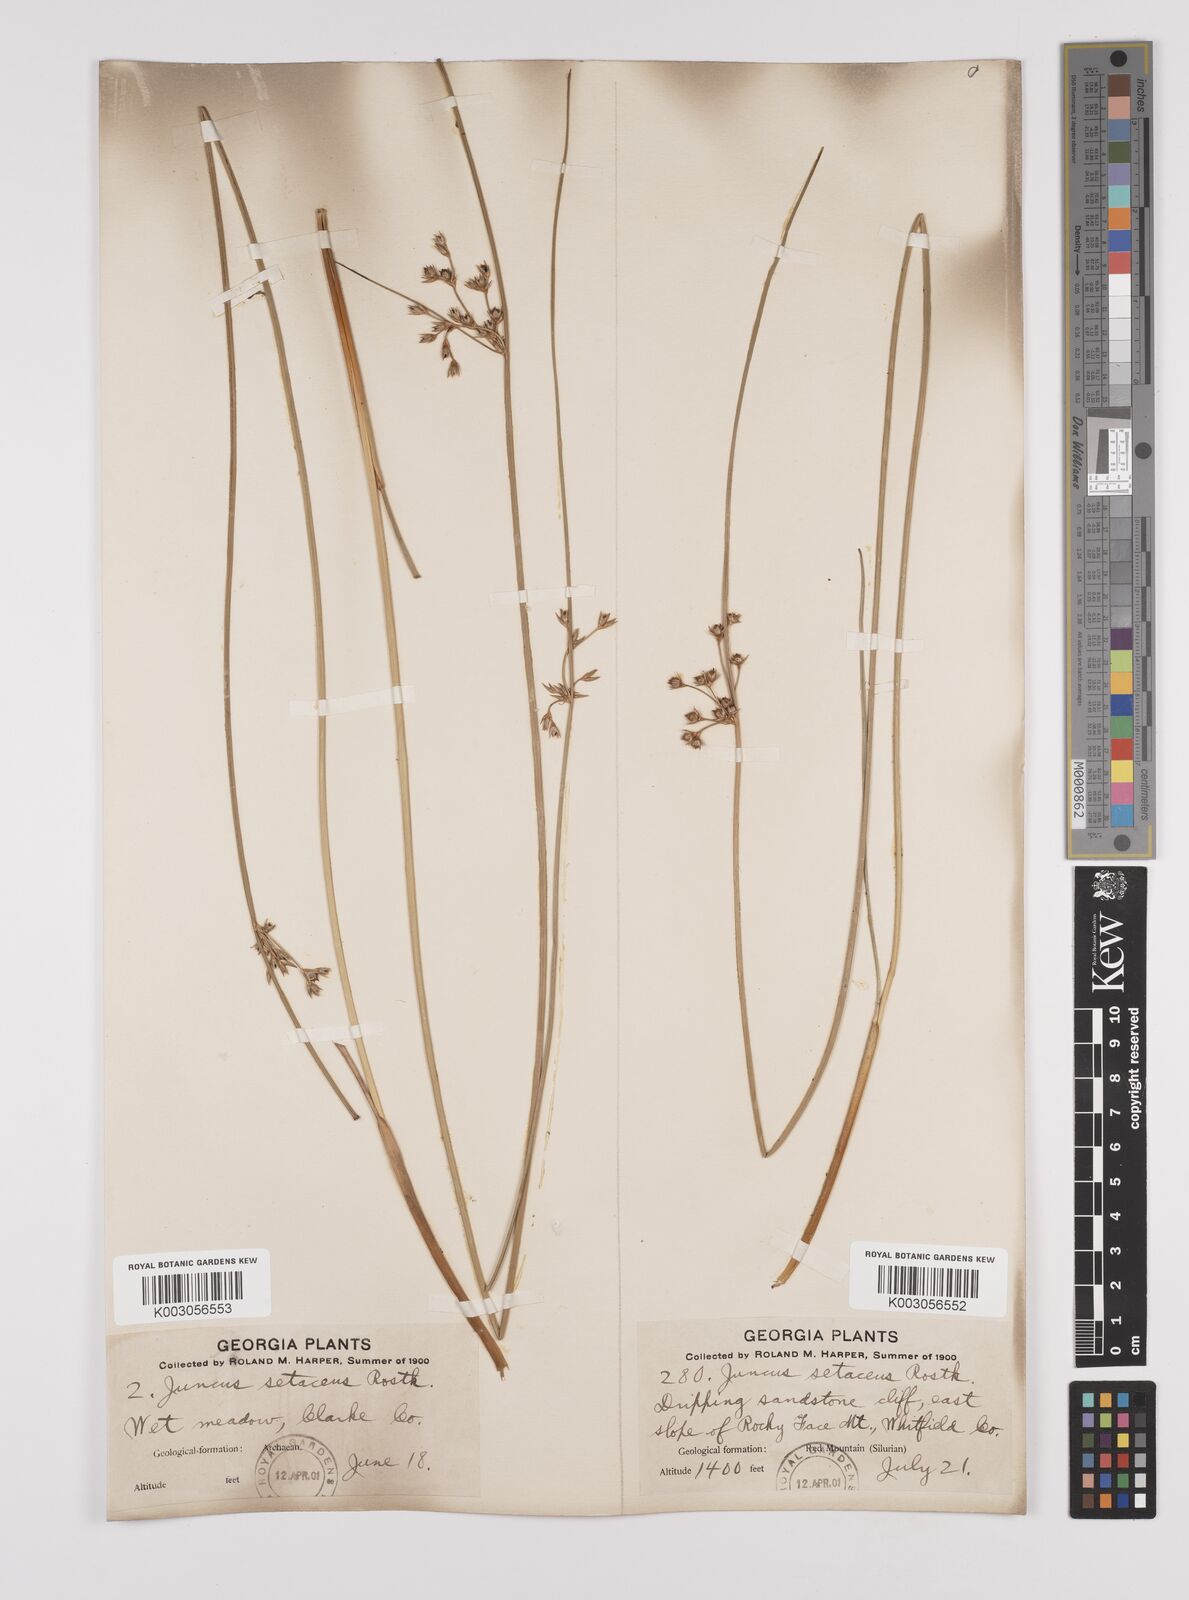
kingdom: Plantae
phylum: Tracheophyta
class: Liliopsida
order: Poales
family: Juncaceae
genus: Juncus
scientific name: Juncus balticus
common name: Baltic rush
